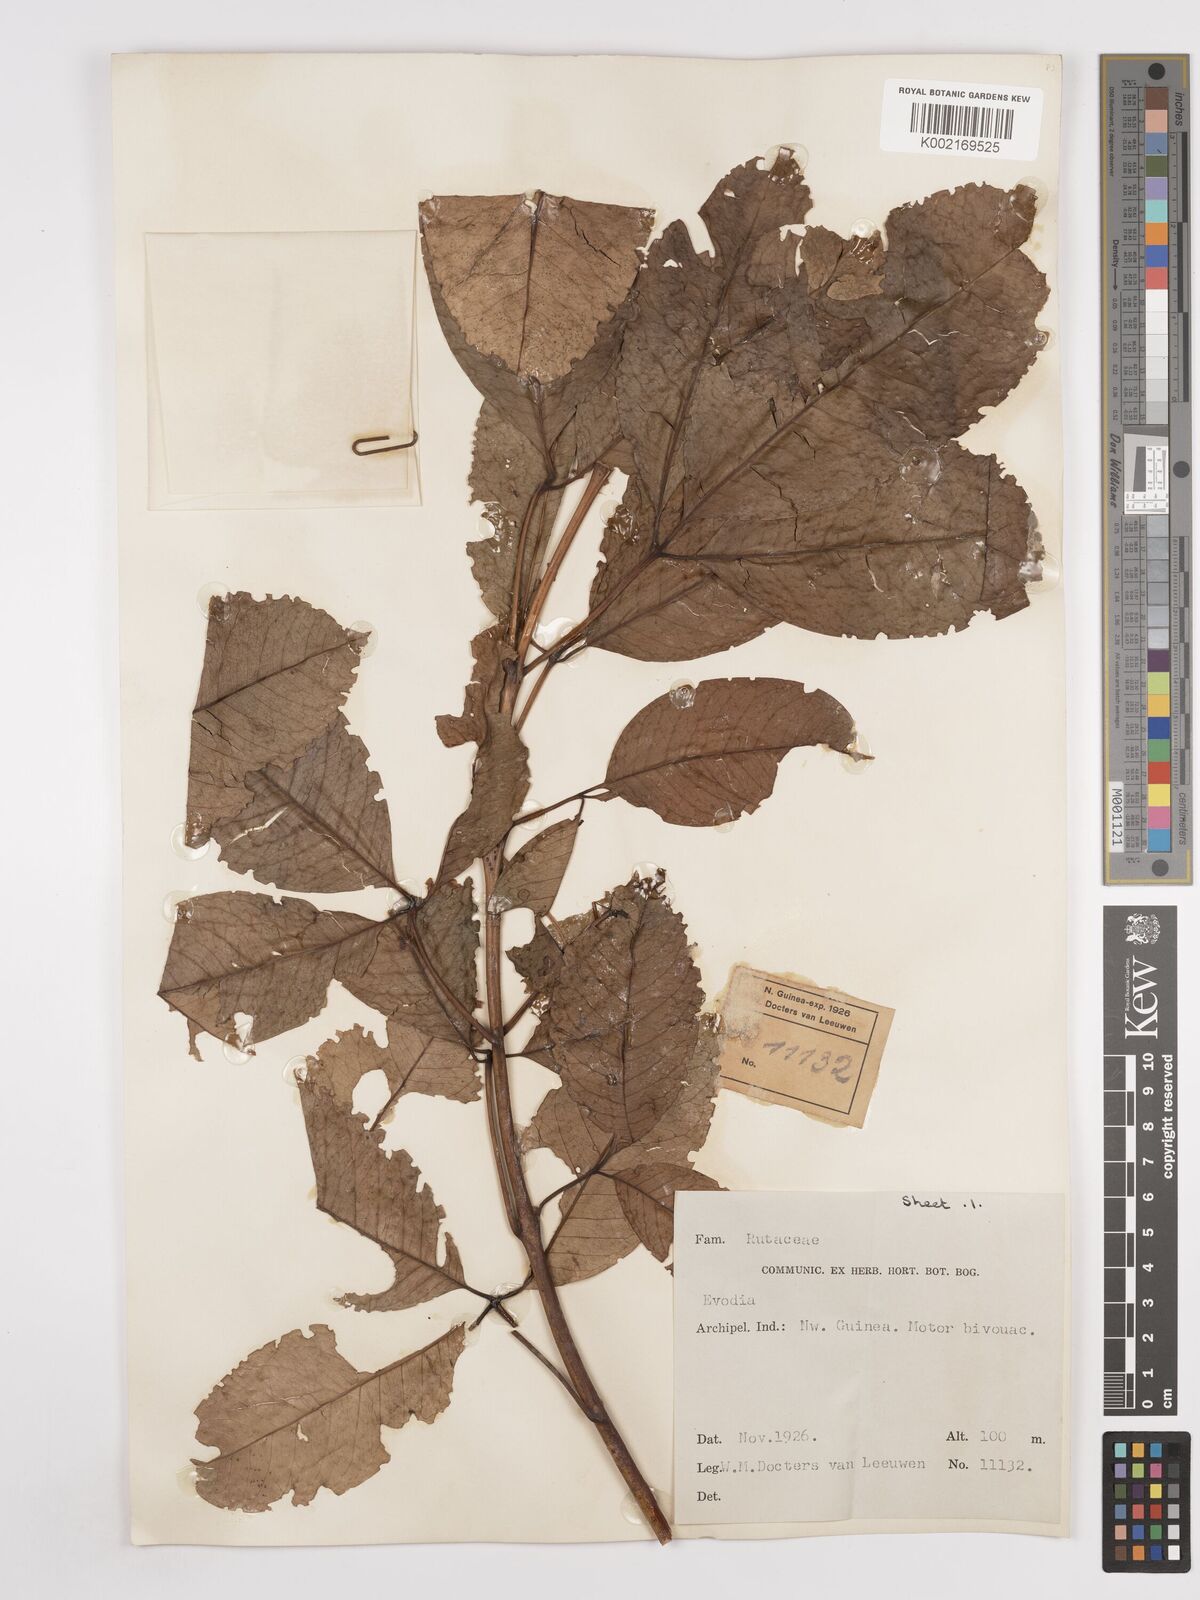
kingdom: Plantae
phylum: Tracheophyta
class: Magnoliopsida
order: Sapindales
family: Rutaceae
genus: Euodia
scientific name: Euodia
